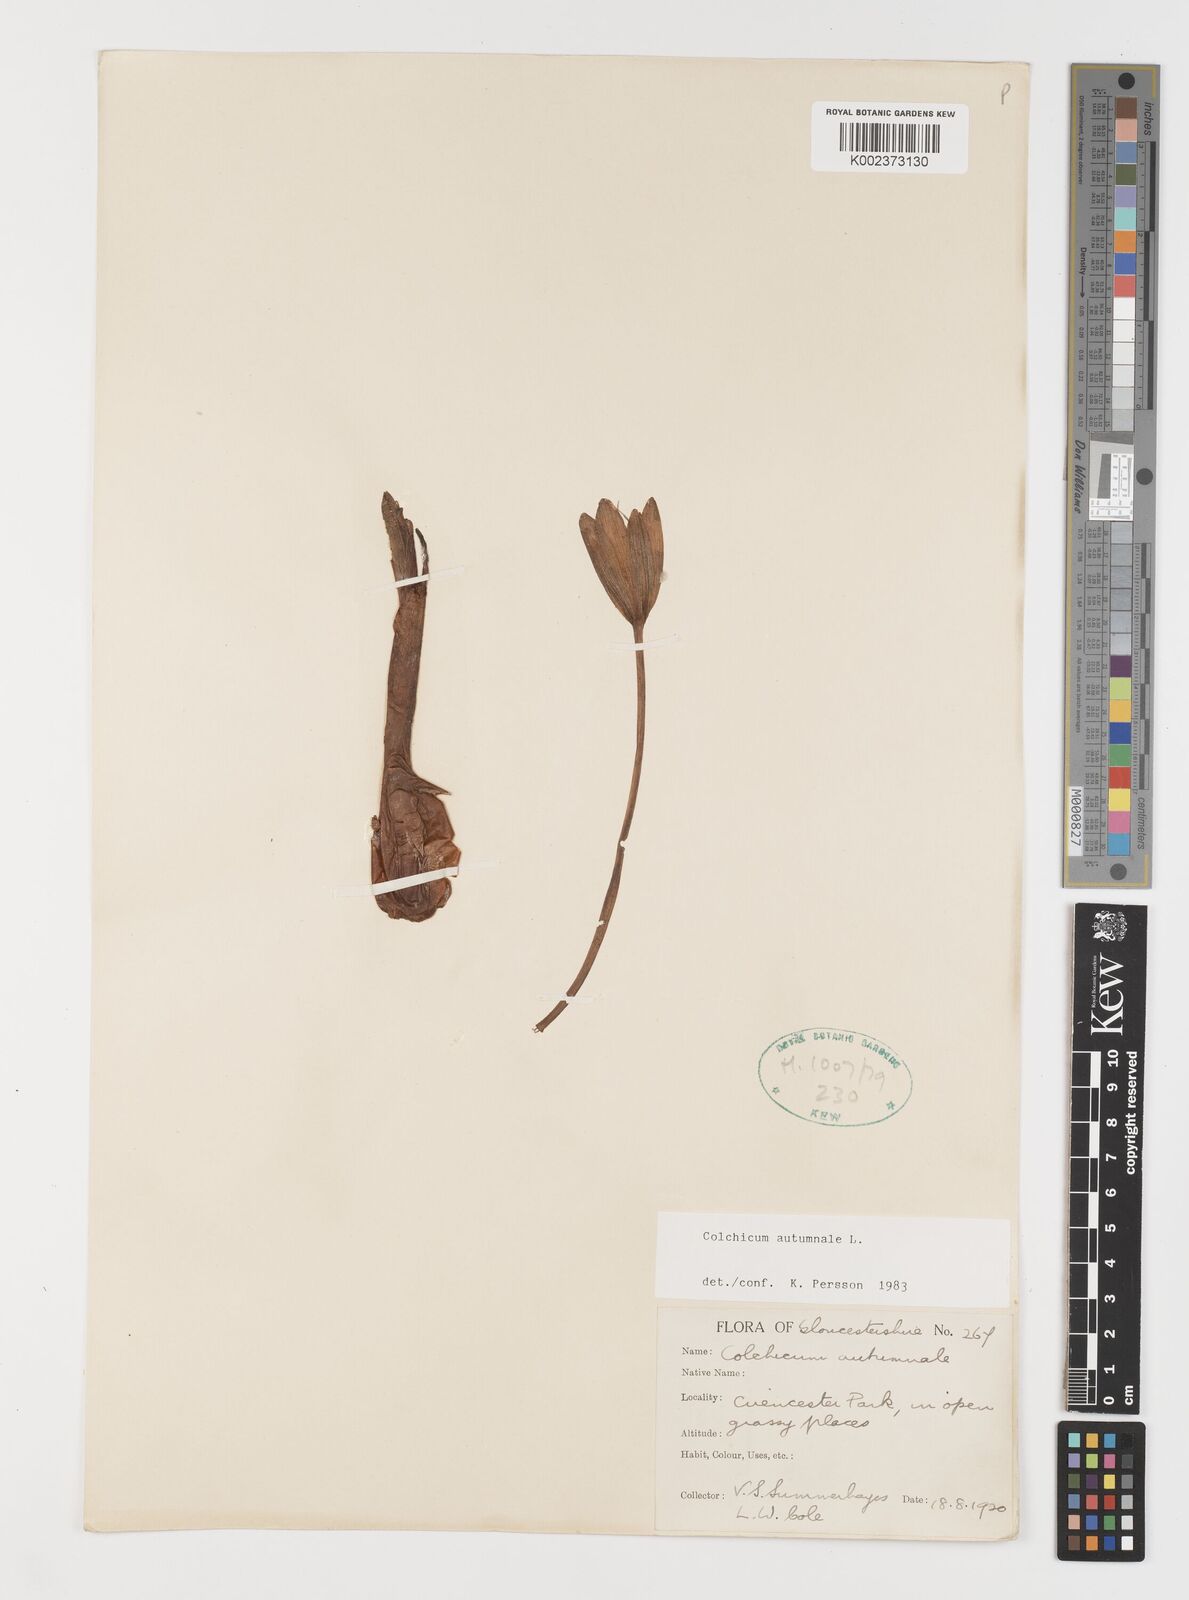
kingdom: Plantae
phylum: Tracheophyta
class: Liliopsida
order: Liliales
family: Colchicaceae
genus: Colchicum
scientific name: Colchicum autumnale
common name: Autumn crocus
